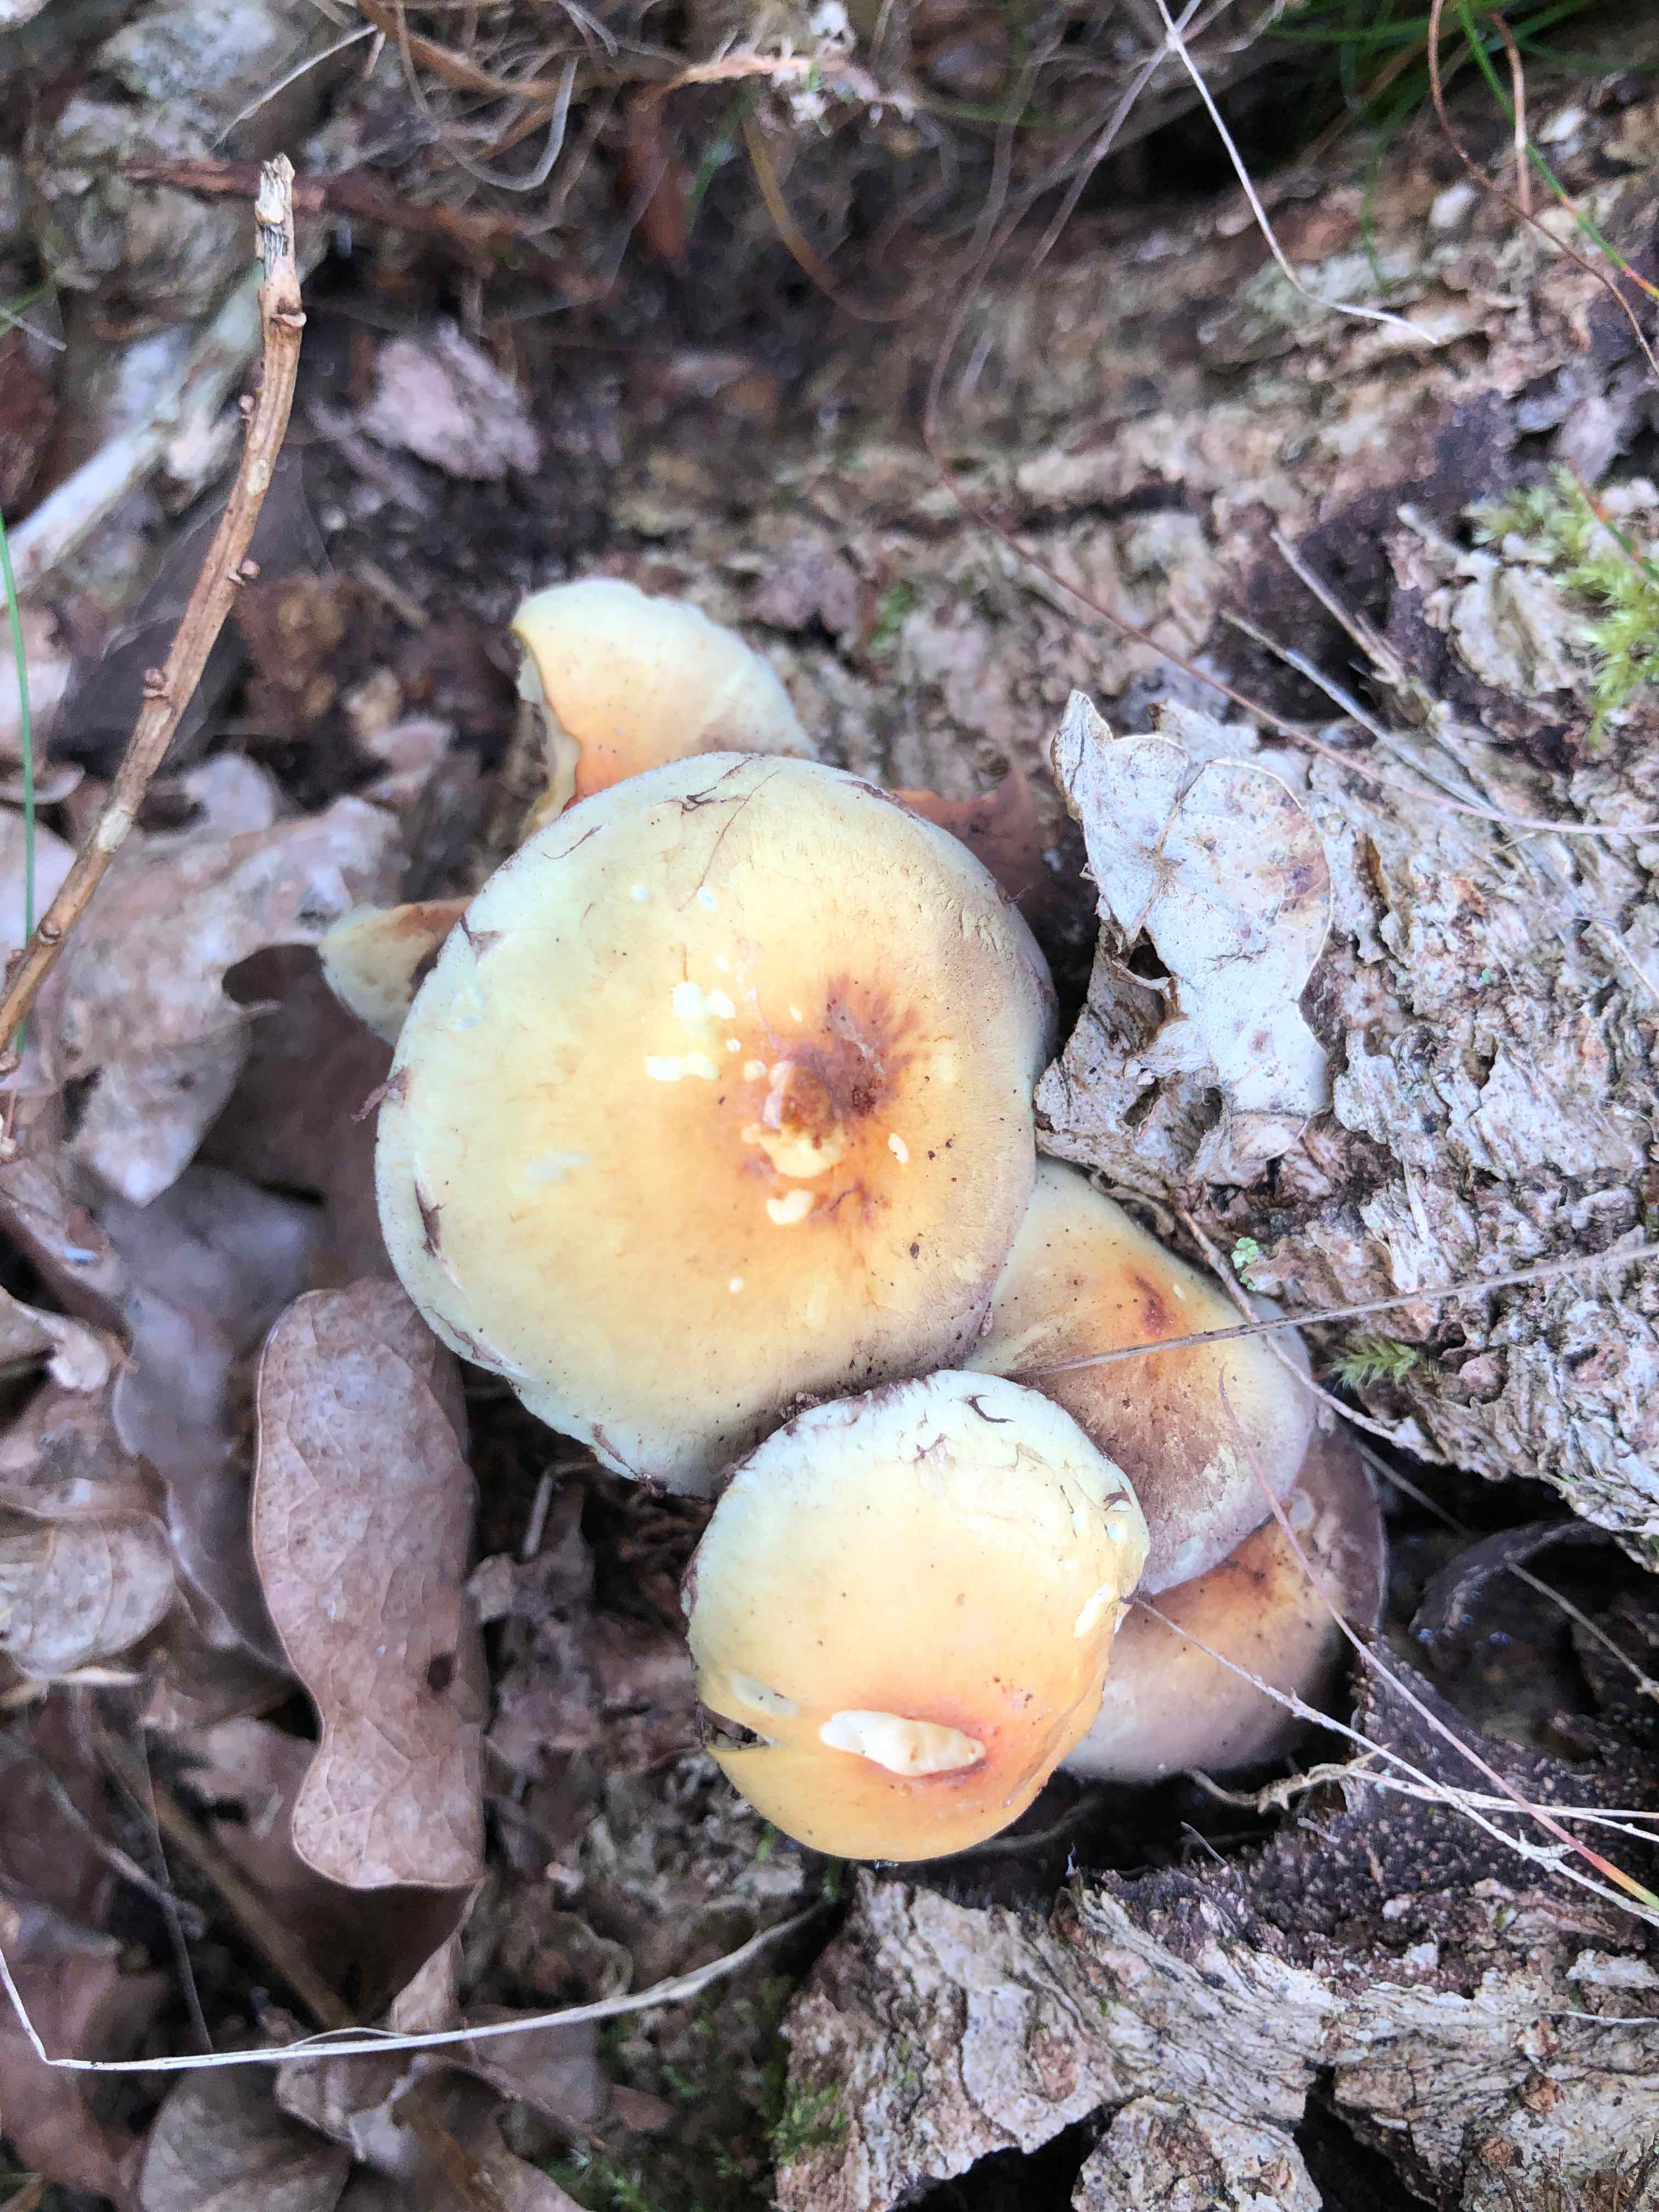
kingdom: Fungi
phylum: Basidiomycota
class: Agaricomycetes
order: Agaricales
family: Strophariaceae
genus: Hypholoma
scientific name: Hypholoma fasciculare
